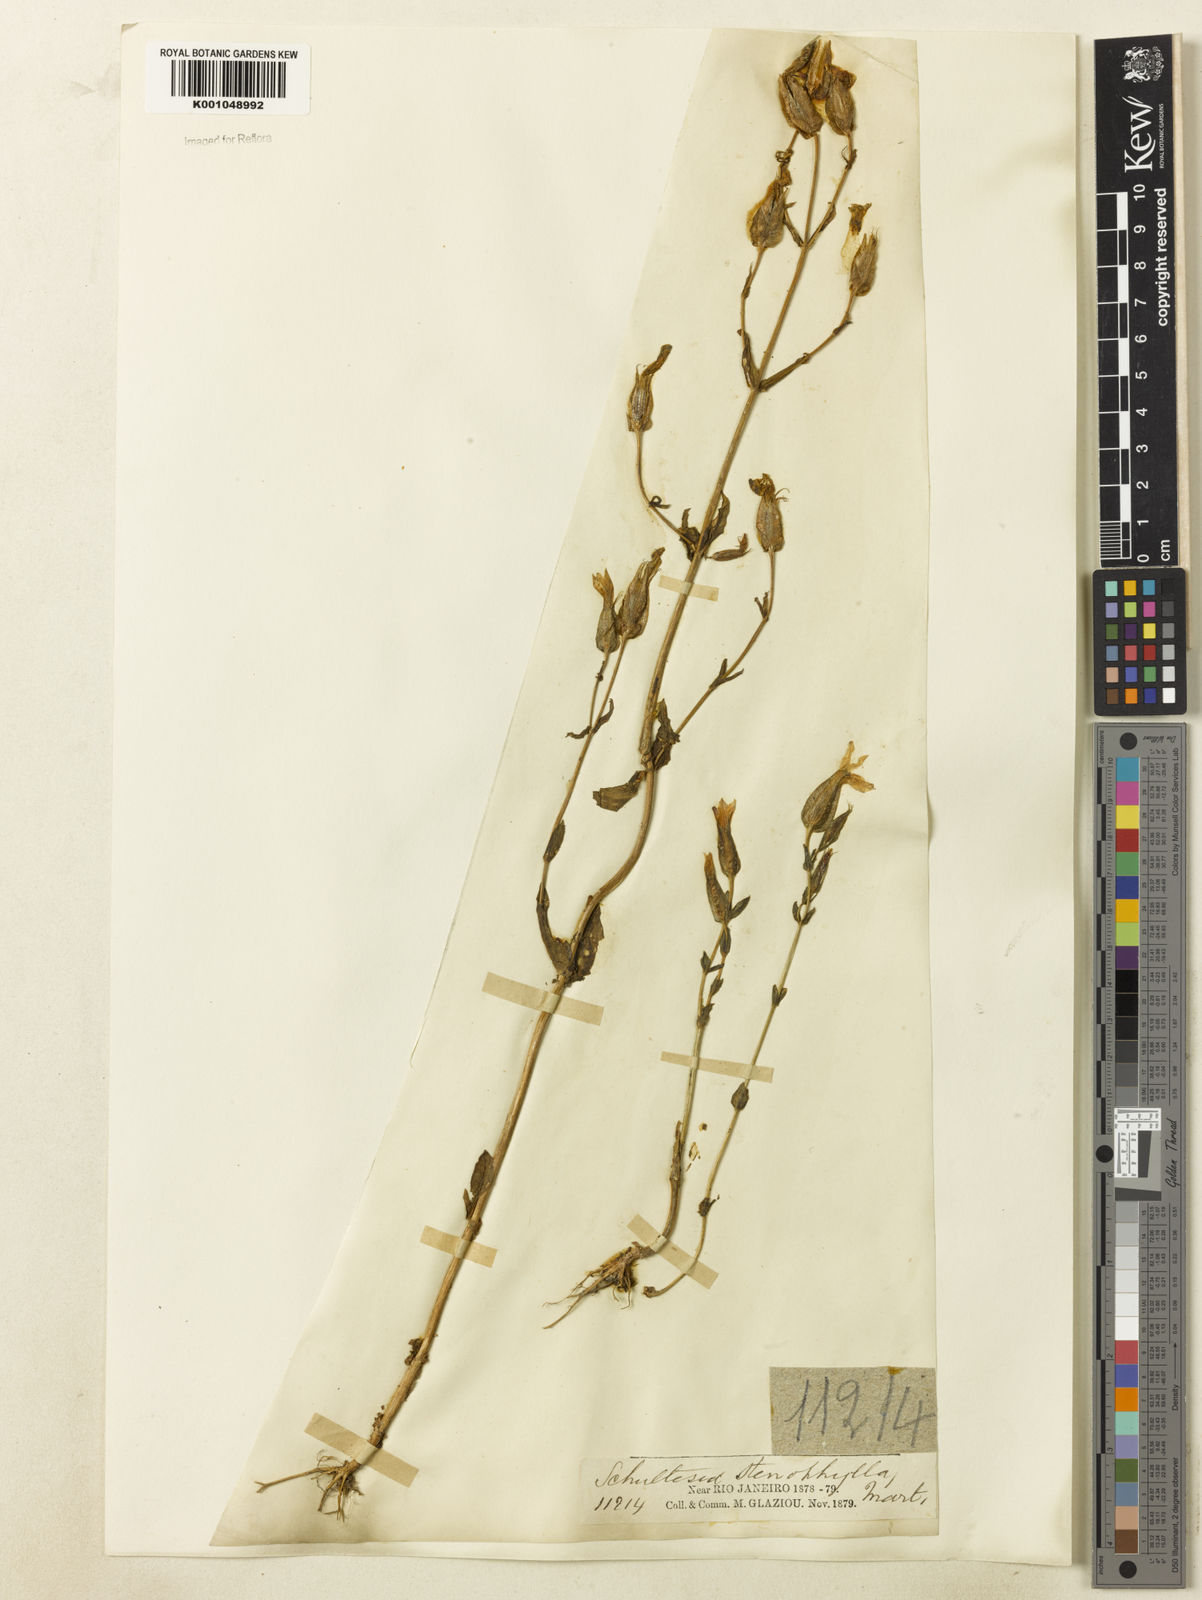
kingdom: Plantae
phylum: Tracheophyta
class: Magnoliopsida
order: Gentianales
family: Gentianaceae
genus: Schultesia
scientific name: Schultesia australis
